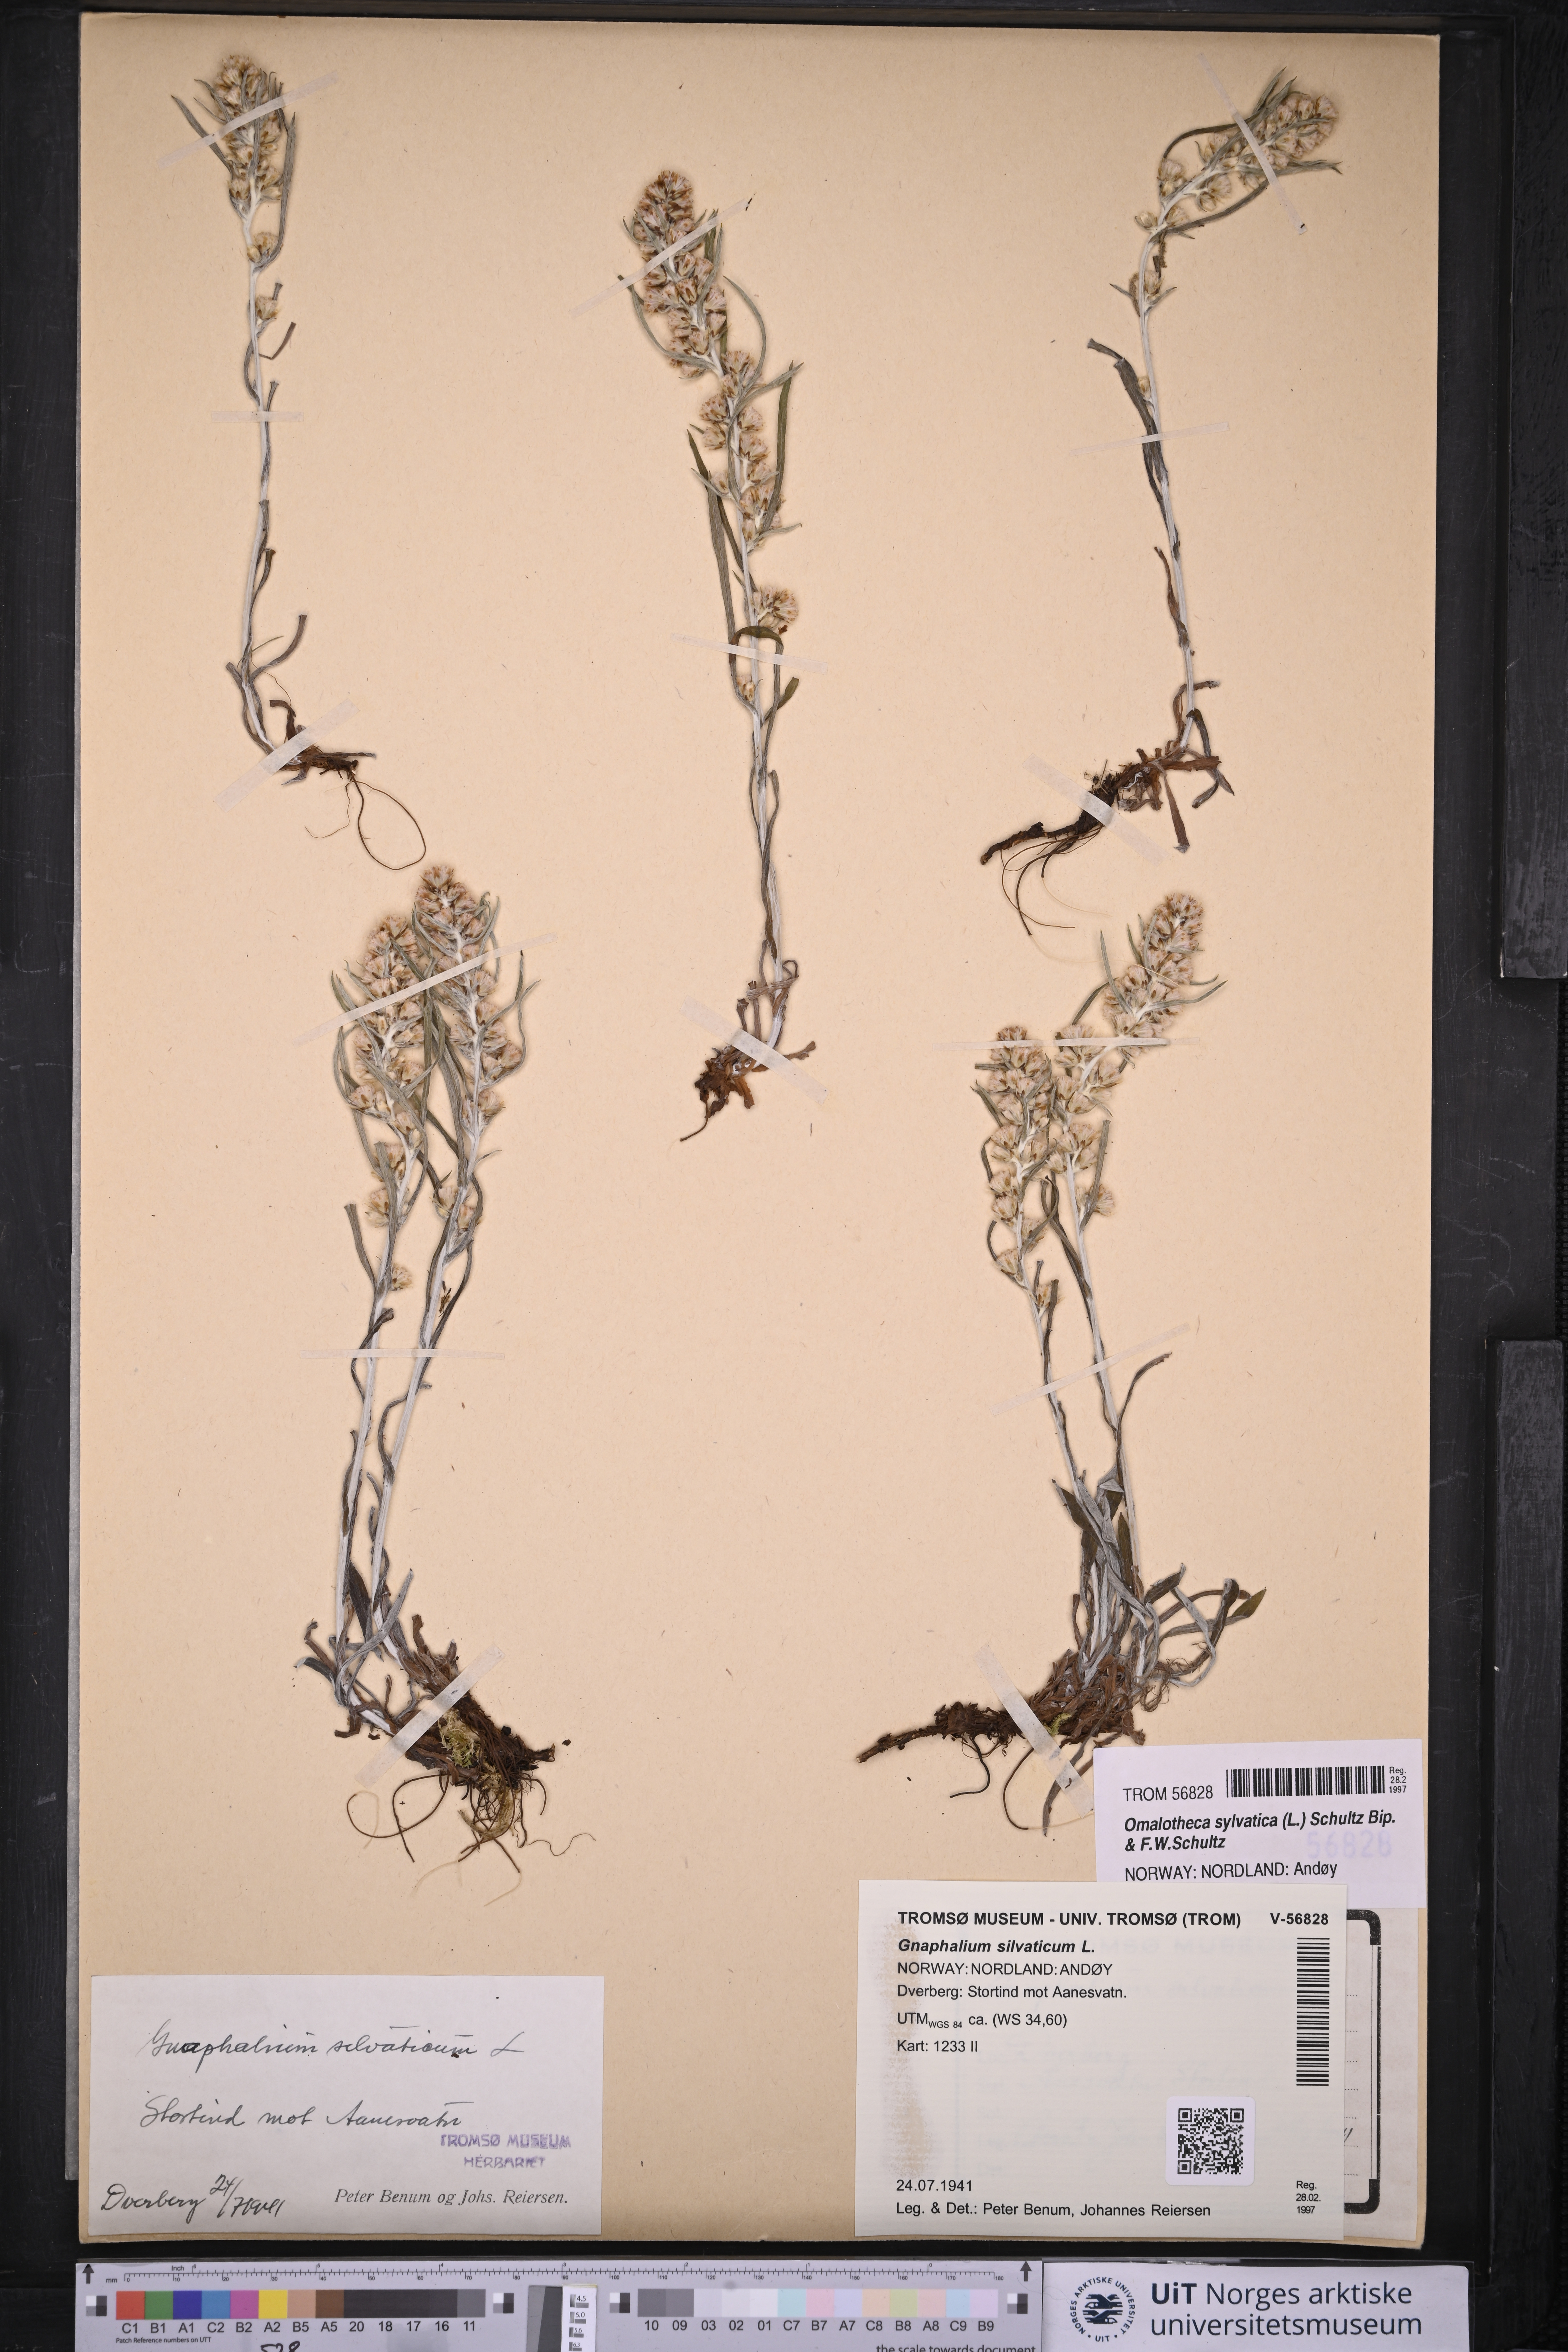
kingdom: Plantae
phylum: Tracheophyta
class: Magnoliopsida
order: Asterales
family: Asteraceae
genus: Omalotheca
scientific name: Omalotheca sylvatica
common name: Heath cudweed
